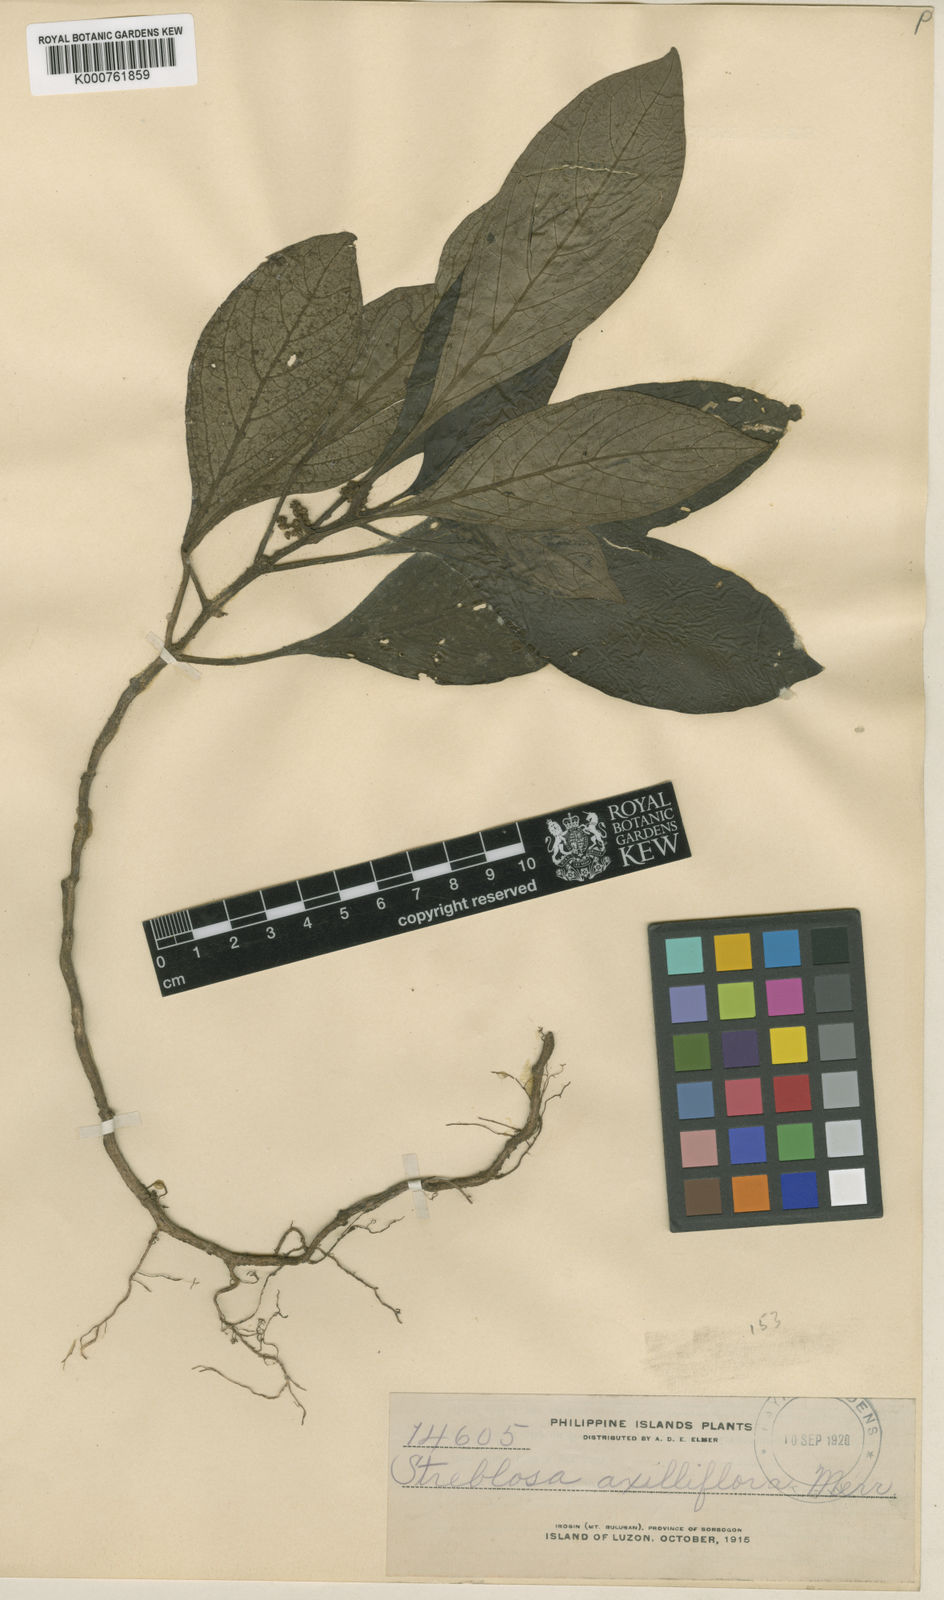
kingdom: Plantae
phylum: Tracheophyta
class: Magnoliopsida
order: Gentianales
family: Rubiaceae
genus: Streblosa
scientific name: Streblosa axilliflora
